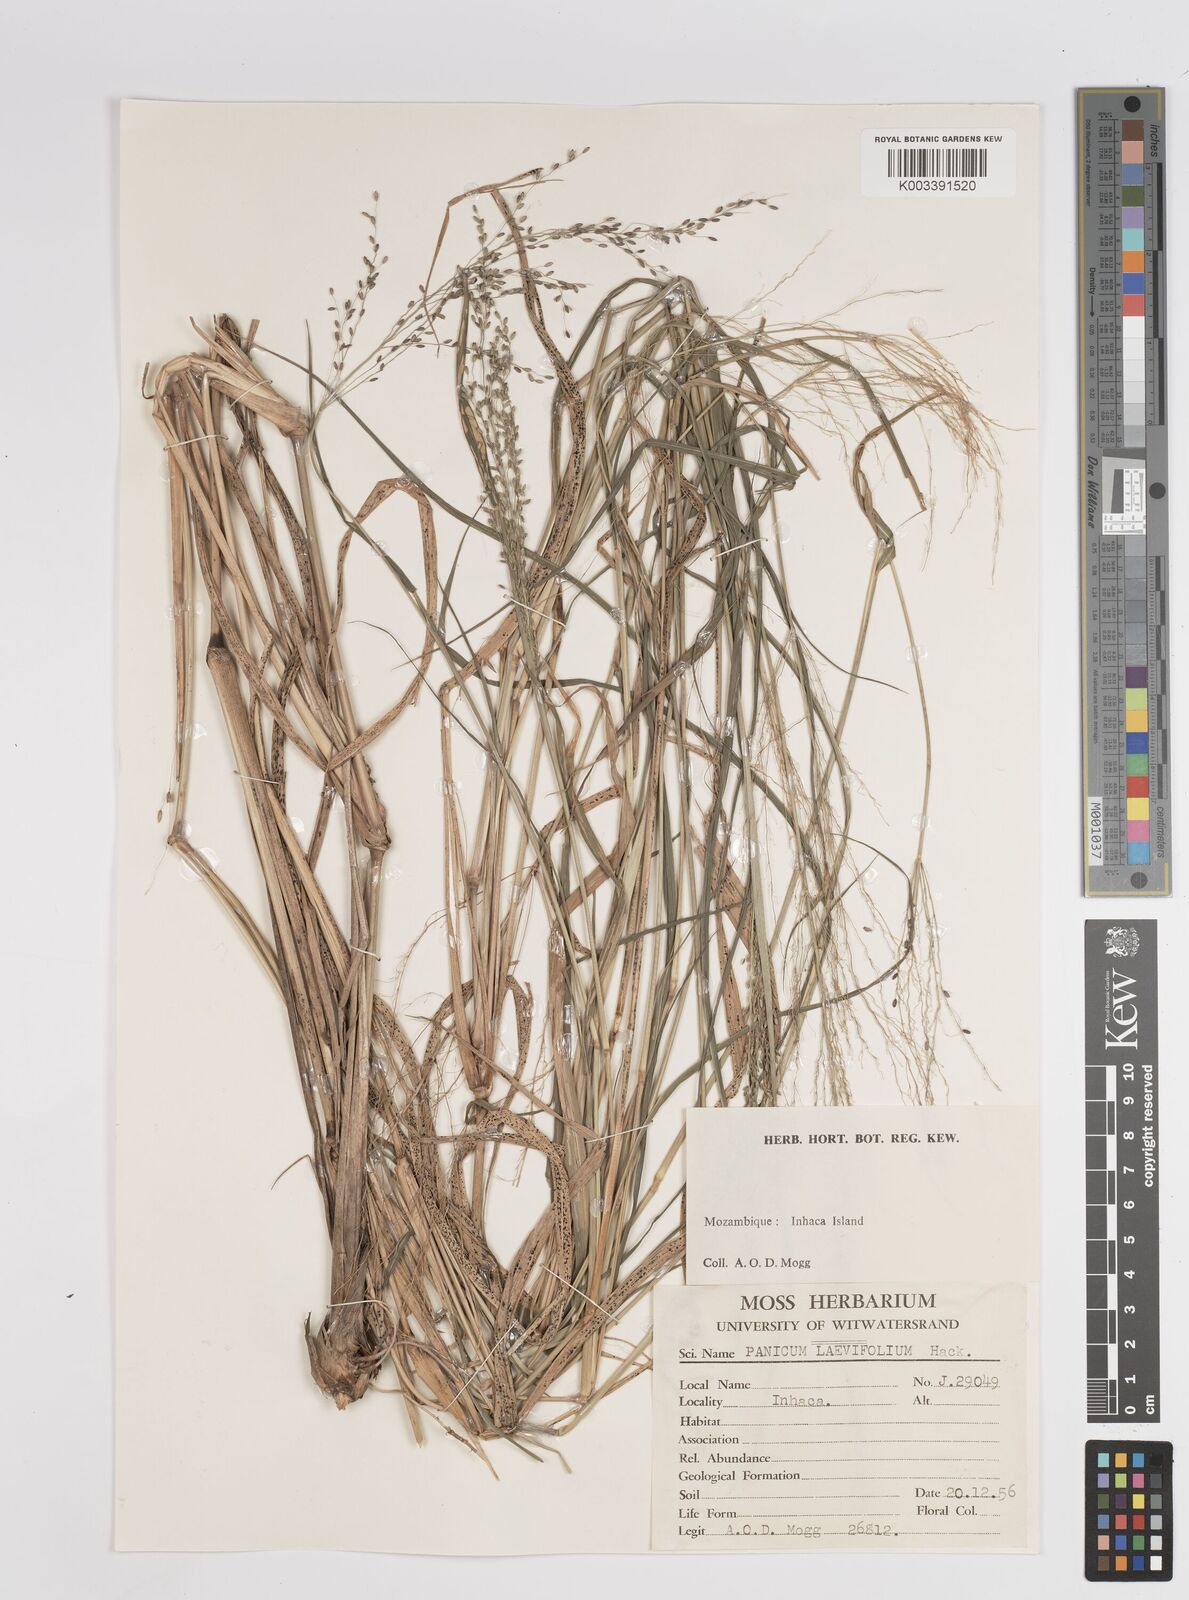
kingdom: Plantae
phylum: Tracheophyta
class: Liliopsida
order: Poales
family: Poaceae
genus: Megathyrsus
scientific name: Megathyrsus maximus
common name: Guineagrass
